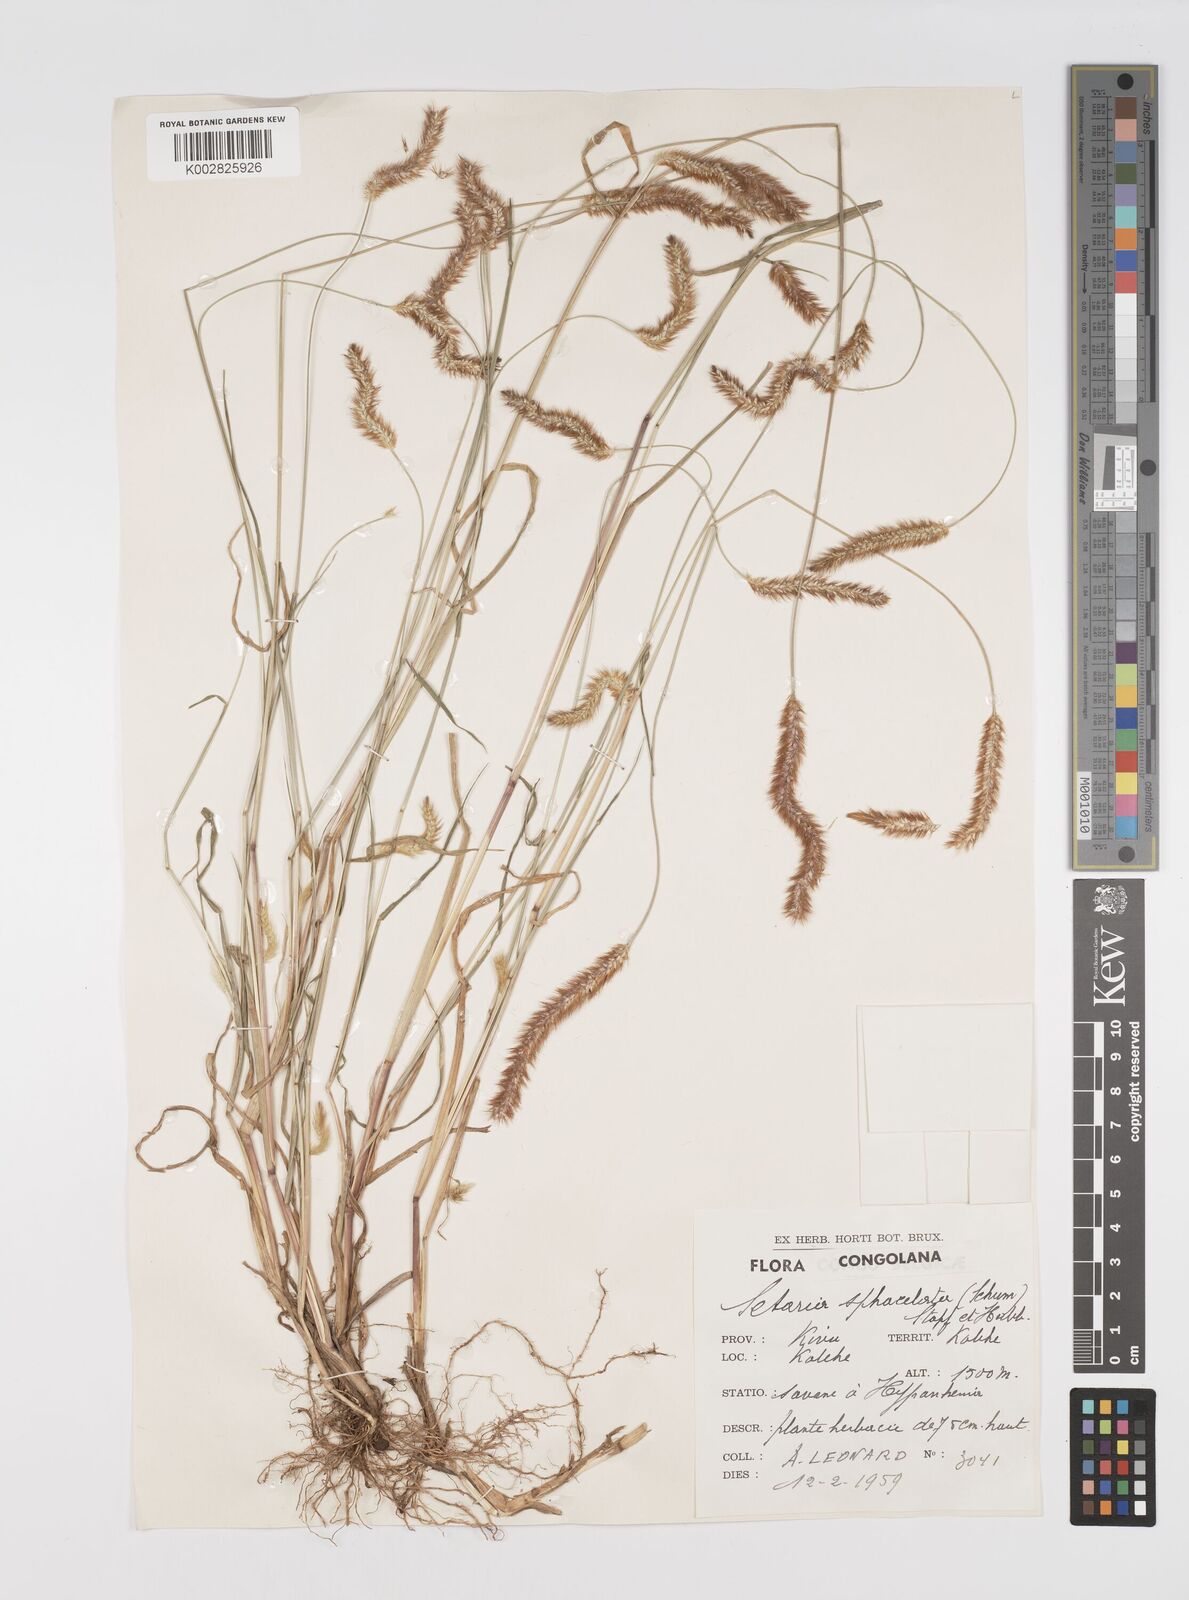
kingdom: Plantae
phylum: Tracheophyta
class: Liliopsida
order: Poales
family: Poaceae
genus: Setaria
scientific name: Setaria pumila
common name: Yellow bristle-grass
